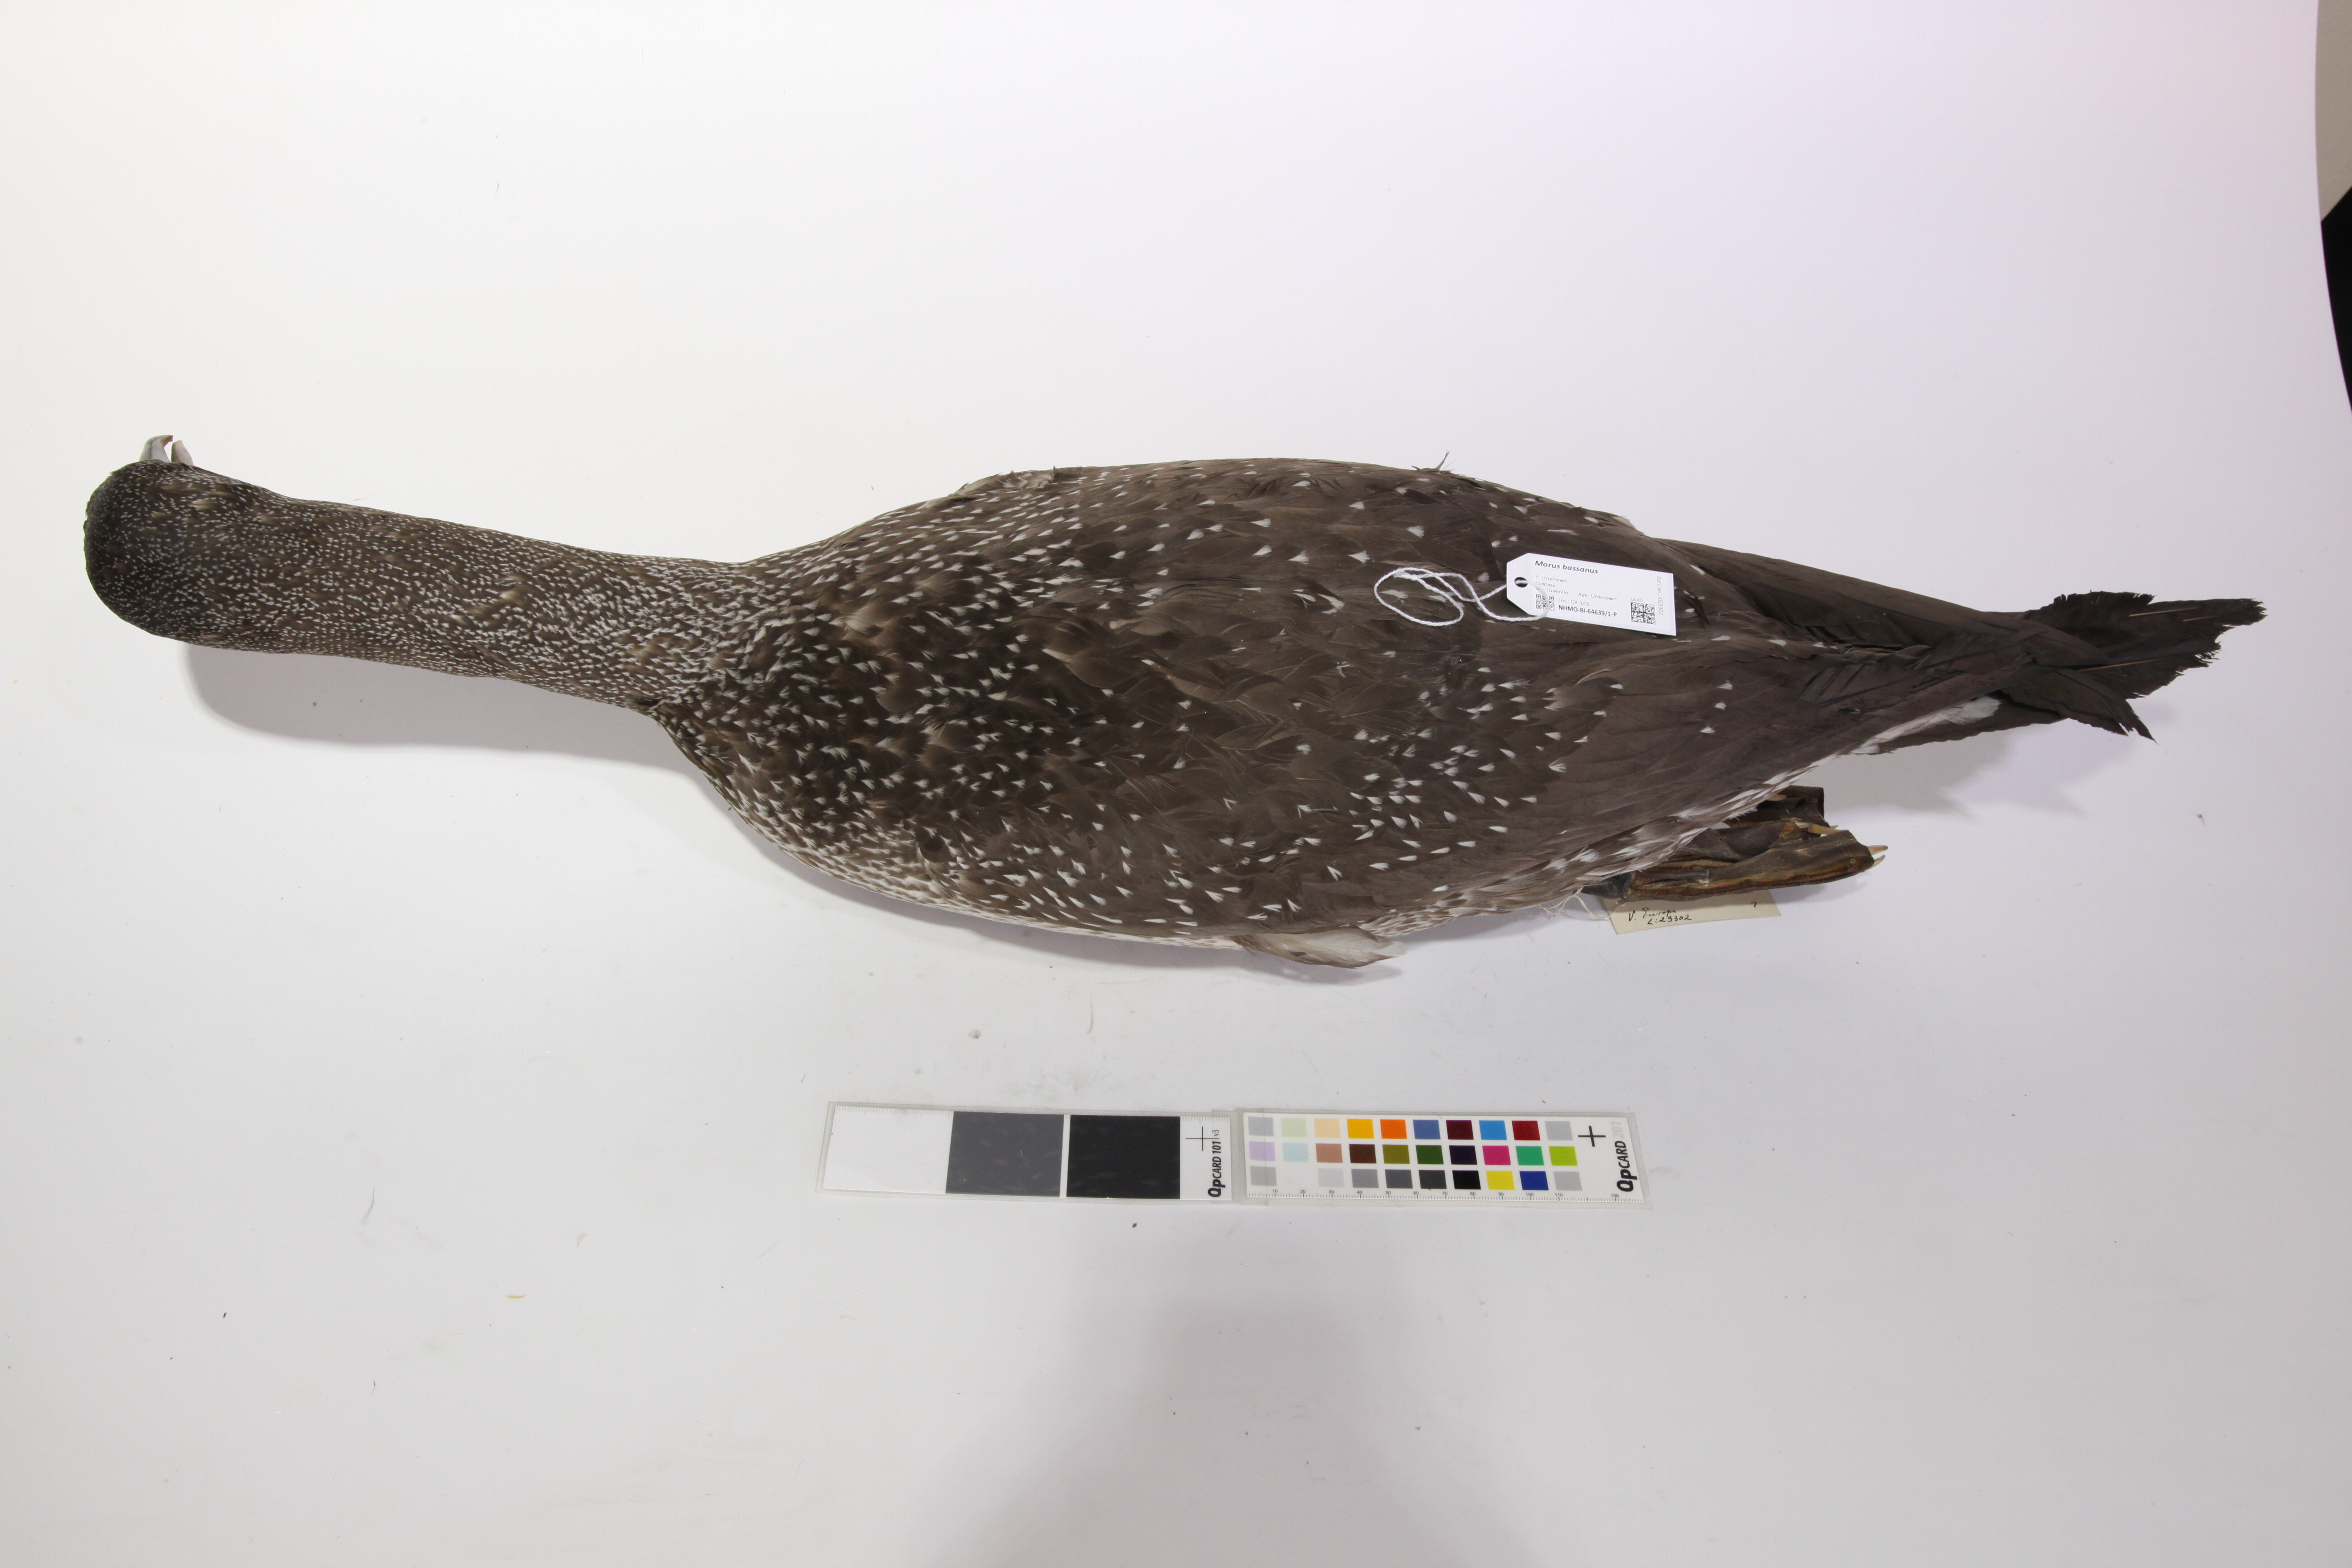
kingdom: Animalia
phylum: Chordata
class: Aves
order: Suliformes
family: Sulidae
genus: Morus
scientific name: Morus bassanus
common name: Northern gannet
